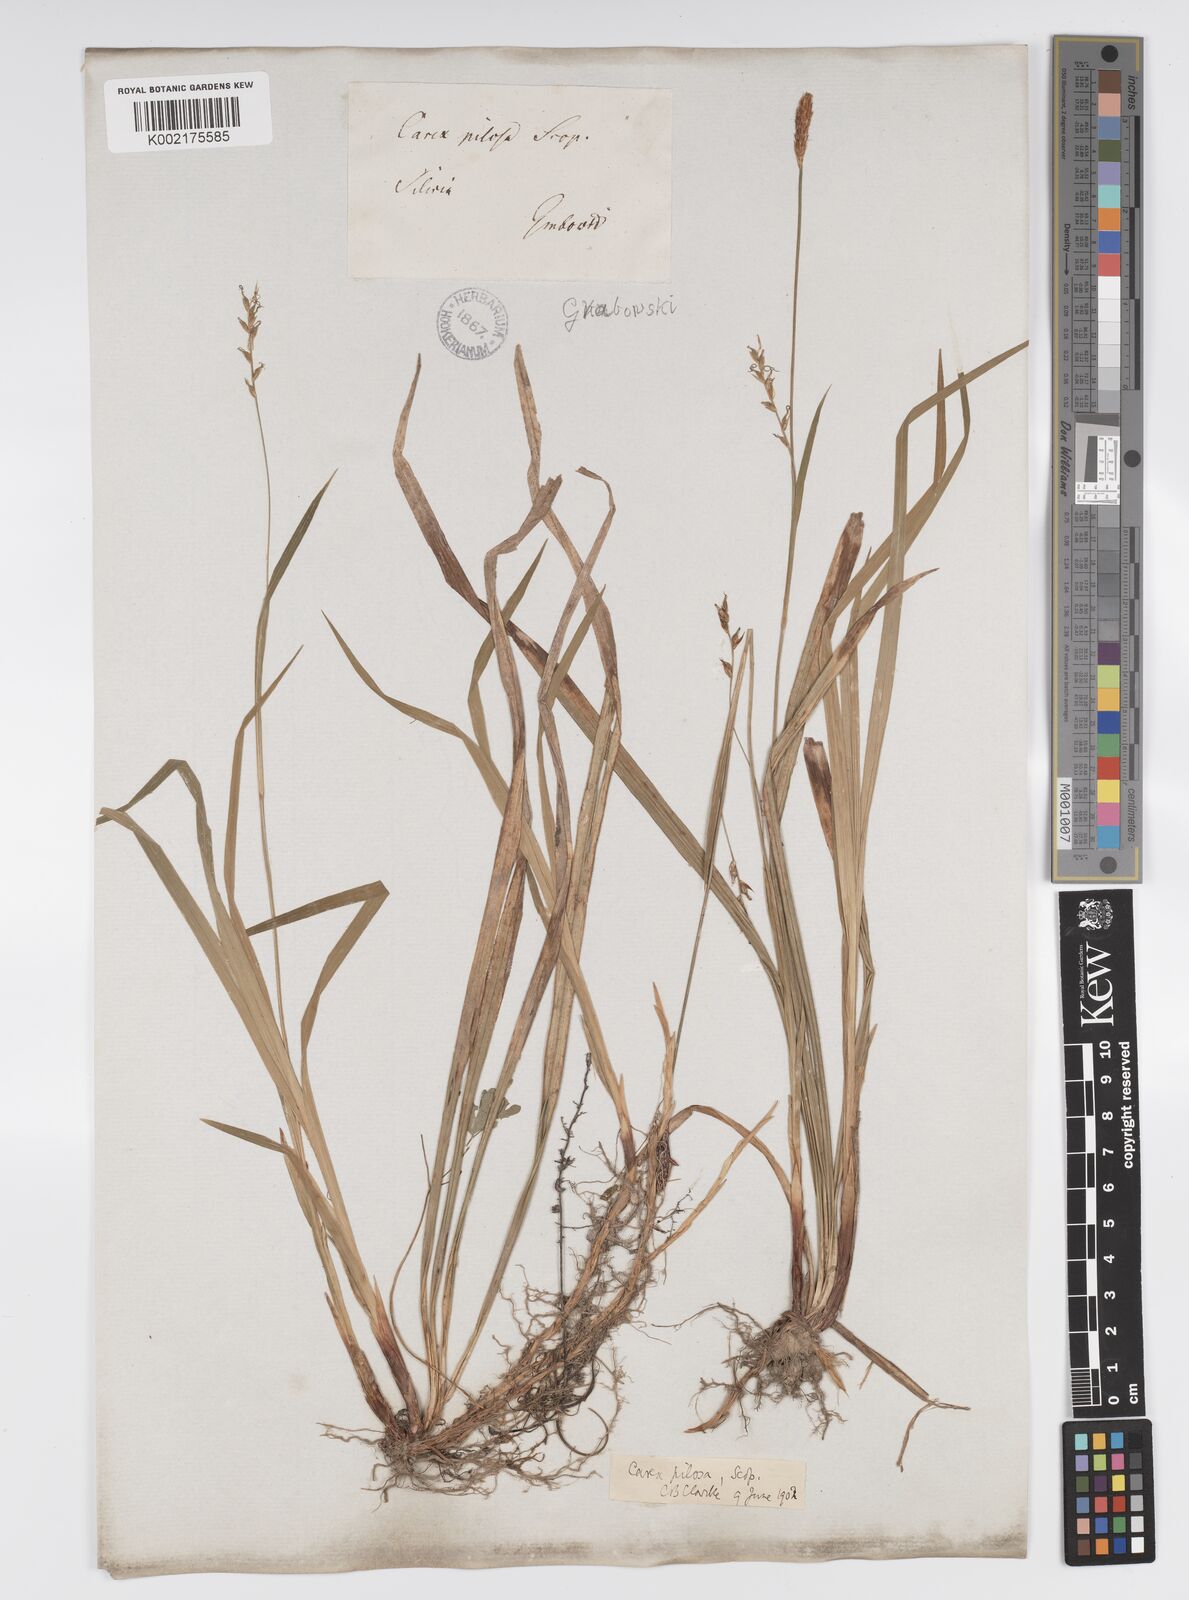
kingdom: Plantae
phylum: Tracheophyta
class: Liliopsida
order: Poales
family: Cyperaceae
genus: Carex
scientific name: Carex pilosa
